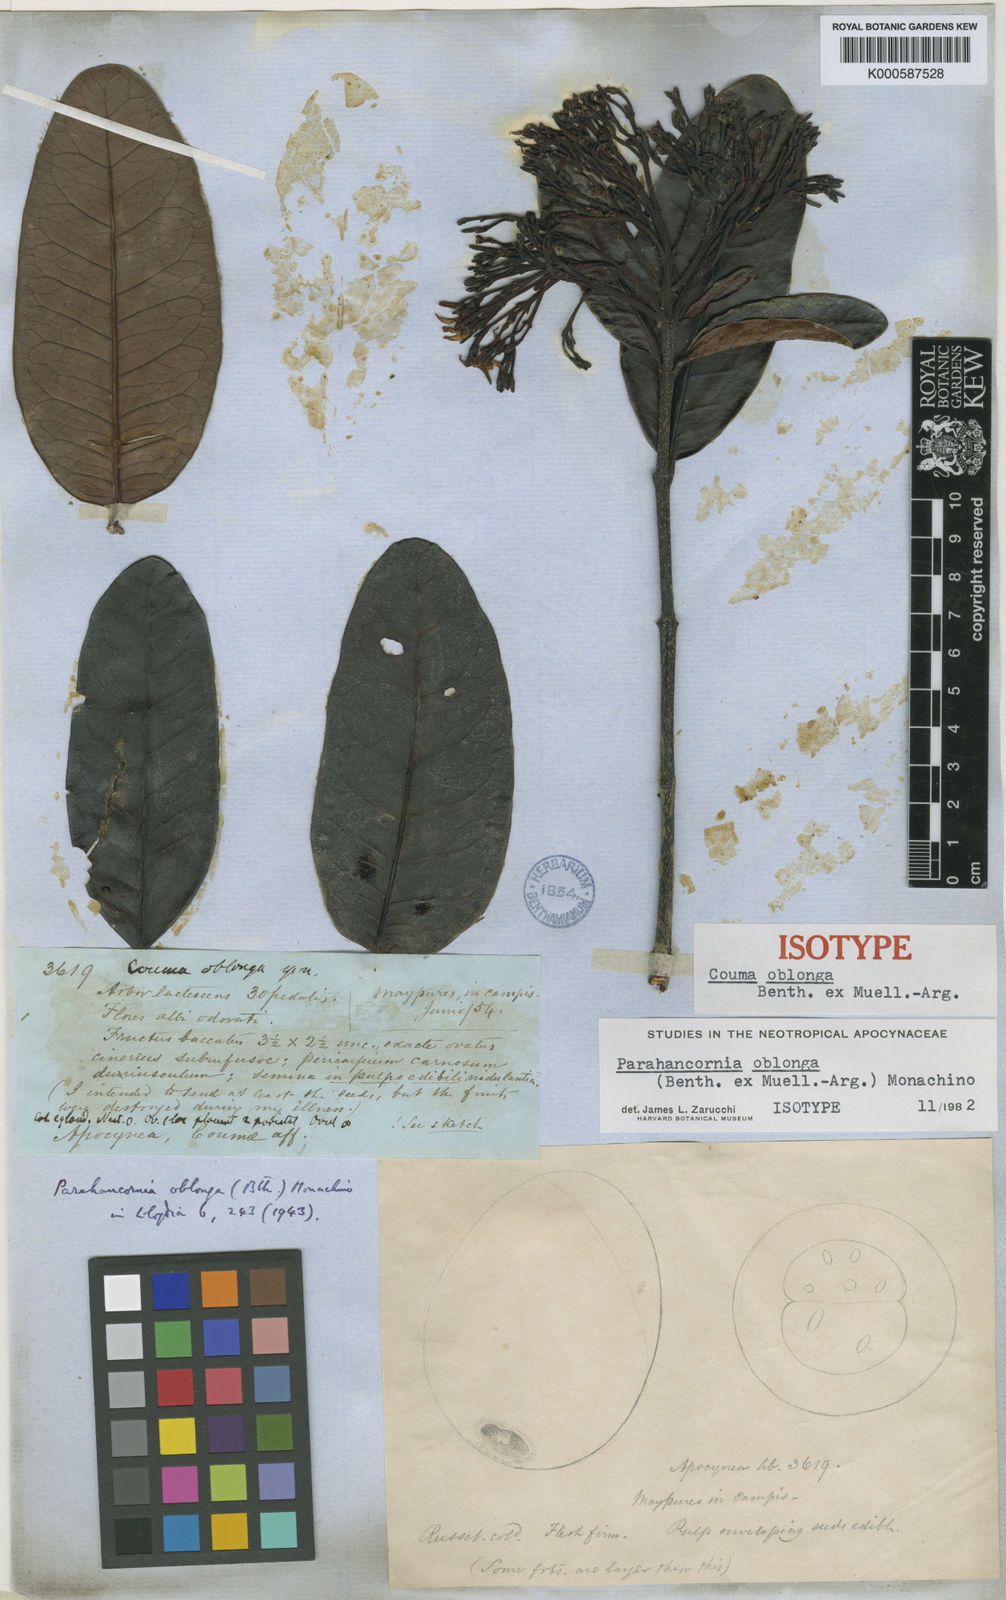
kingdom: Plantae
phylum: Tracheophyta
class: Magnoliopsida
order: Gentianales
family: Apocynaceae
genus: Parahancornia
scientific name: Parahancornia
